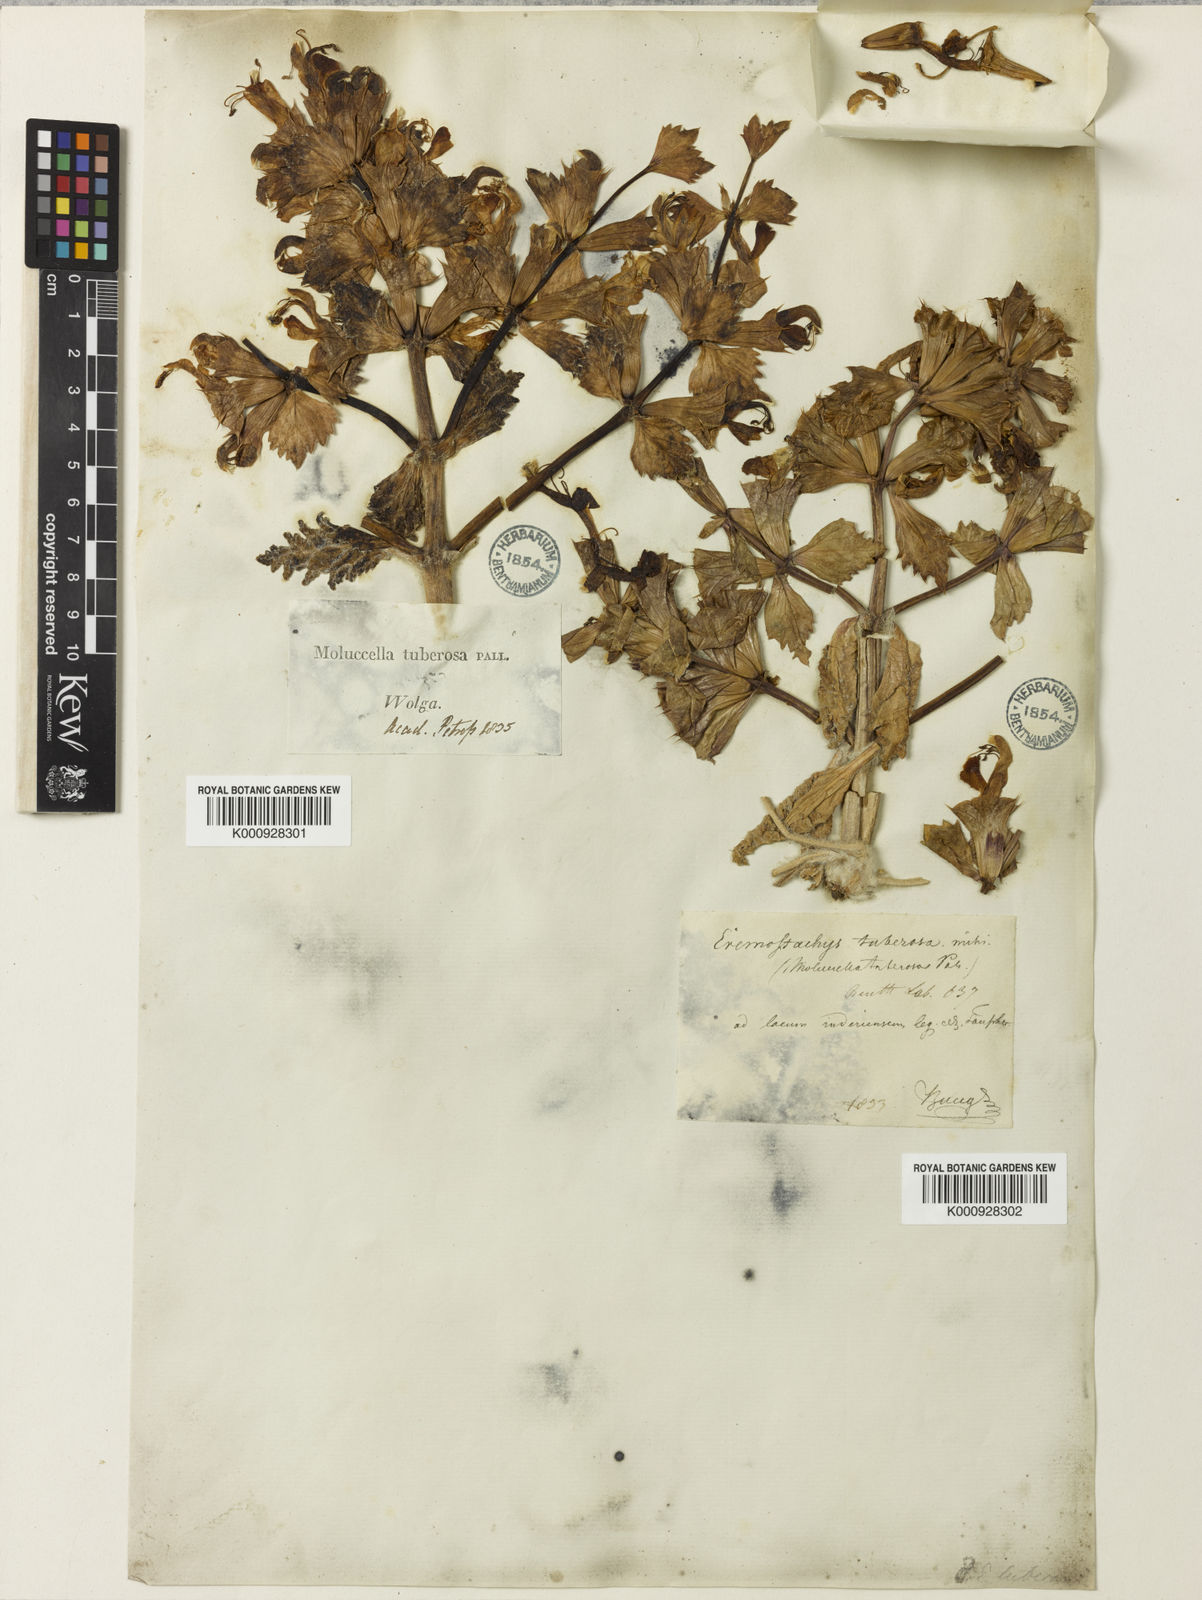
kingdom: Plantae
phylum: Tracheophyta
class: Magnoliopsida
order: Lamiales
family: Lamiaceae
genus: Phlomoides
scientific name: Phlomoides uralensis
